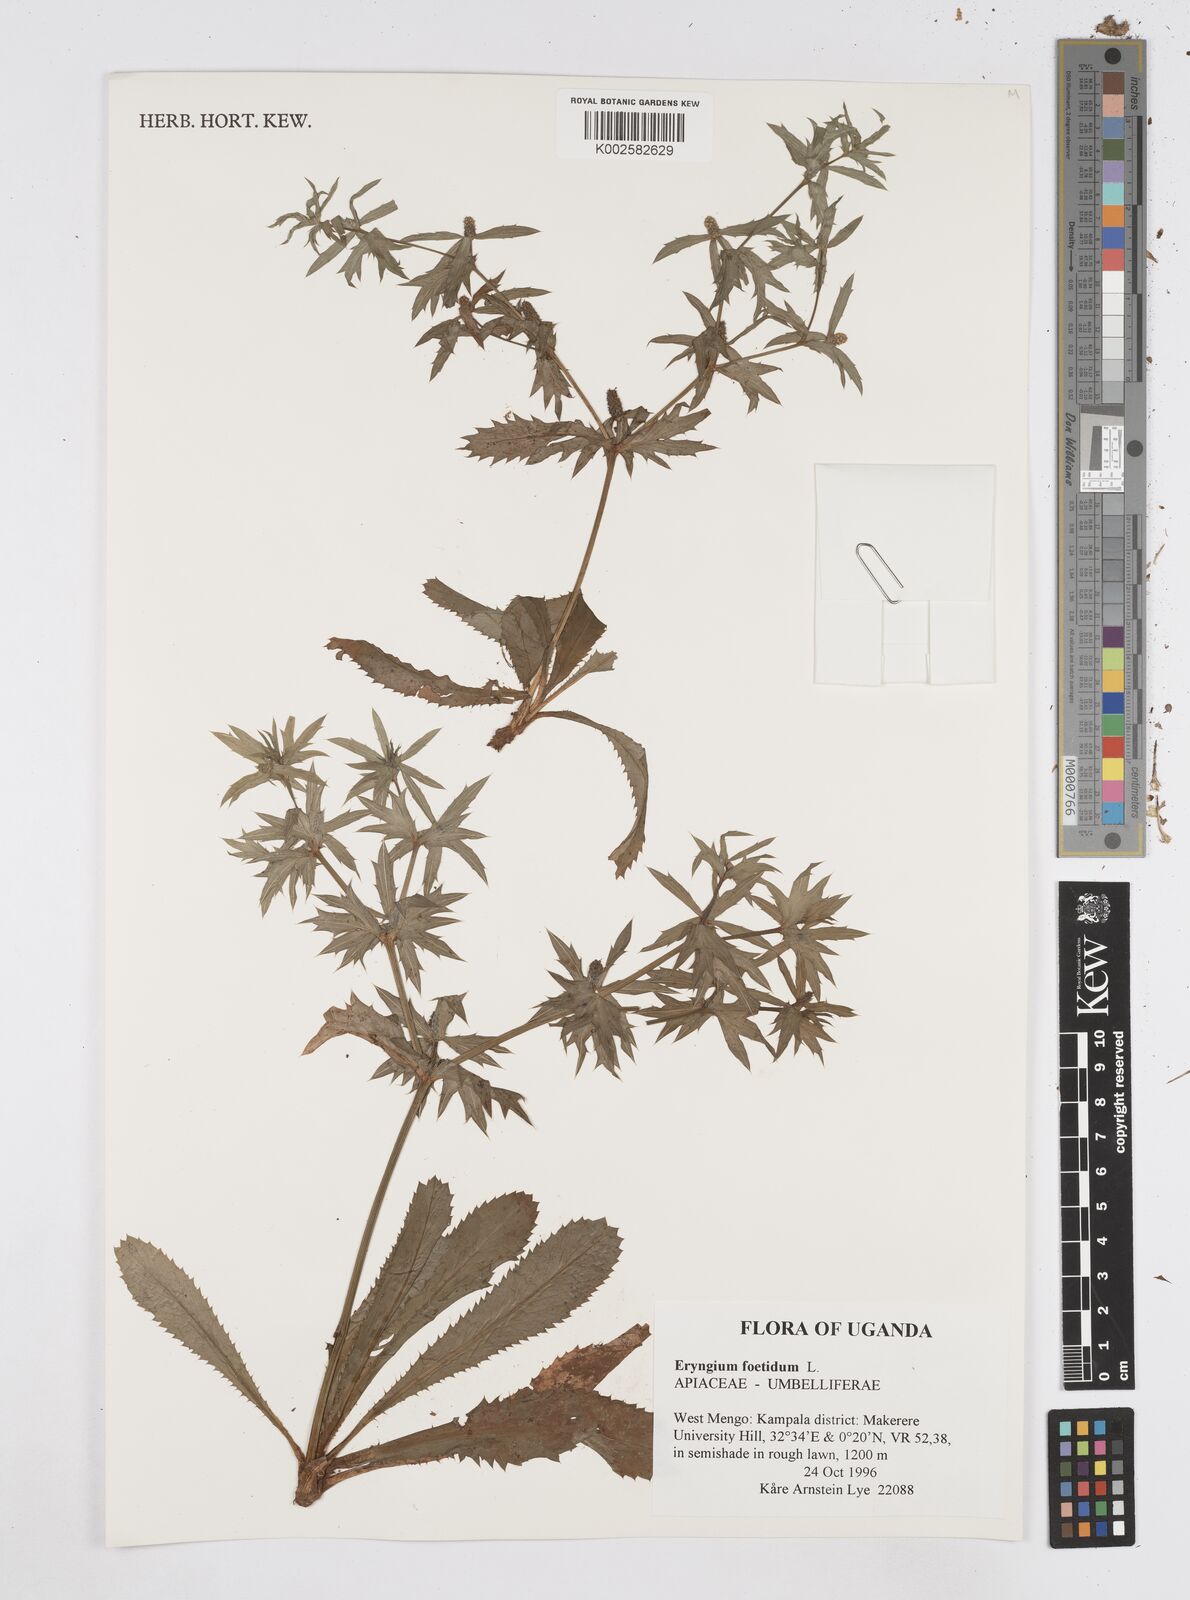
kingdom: Plantae
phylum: Tracheophyta
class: Magnoliopsida
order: Apiales
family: Apiaceae
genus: Eryngium
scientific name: Eryngium foetidum
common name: Fitweed
